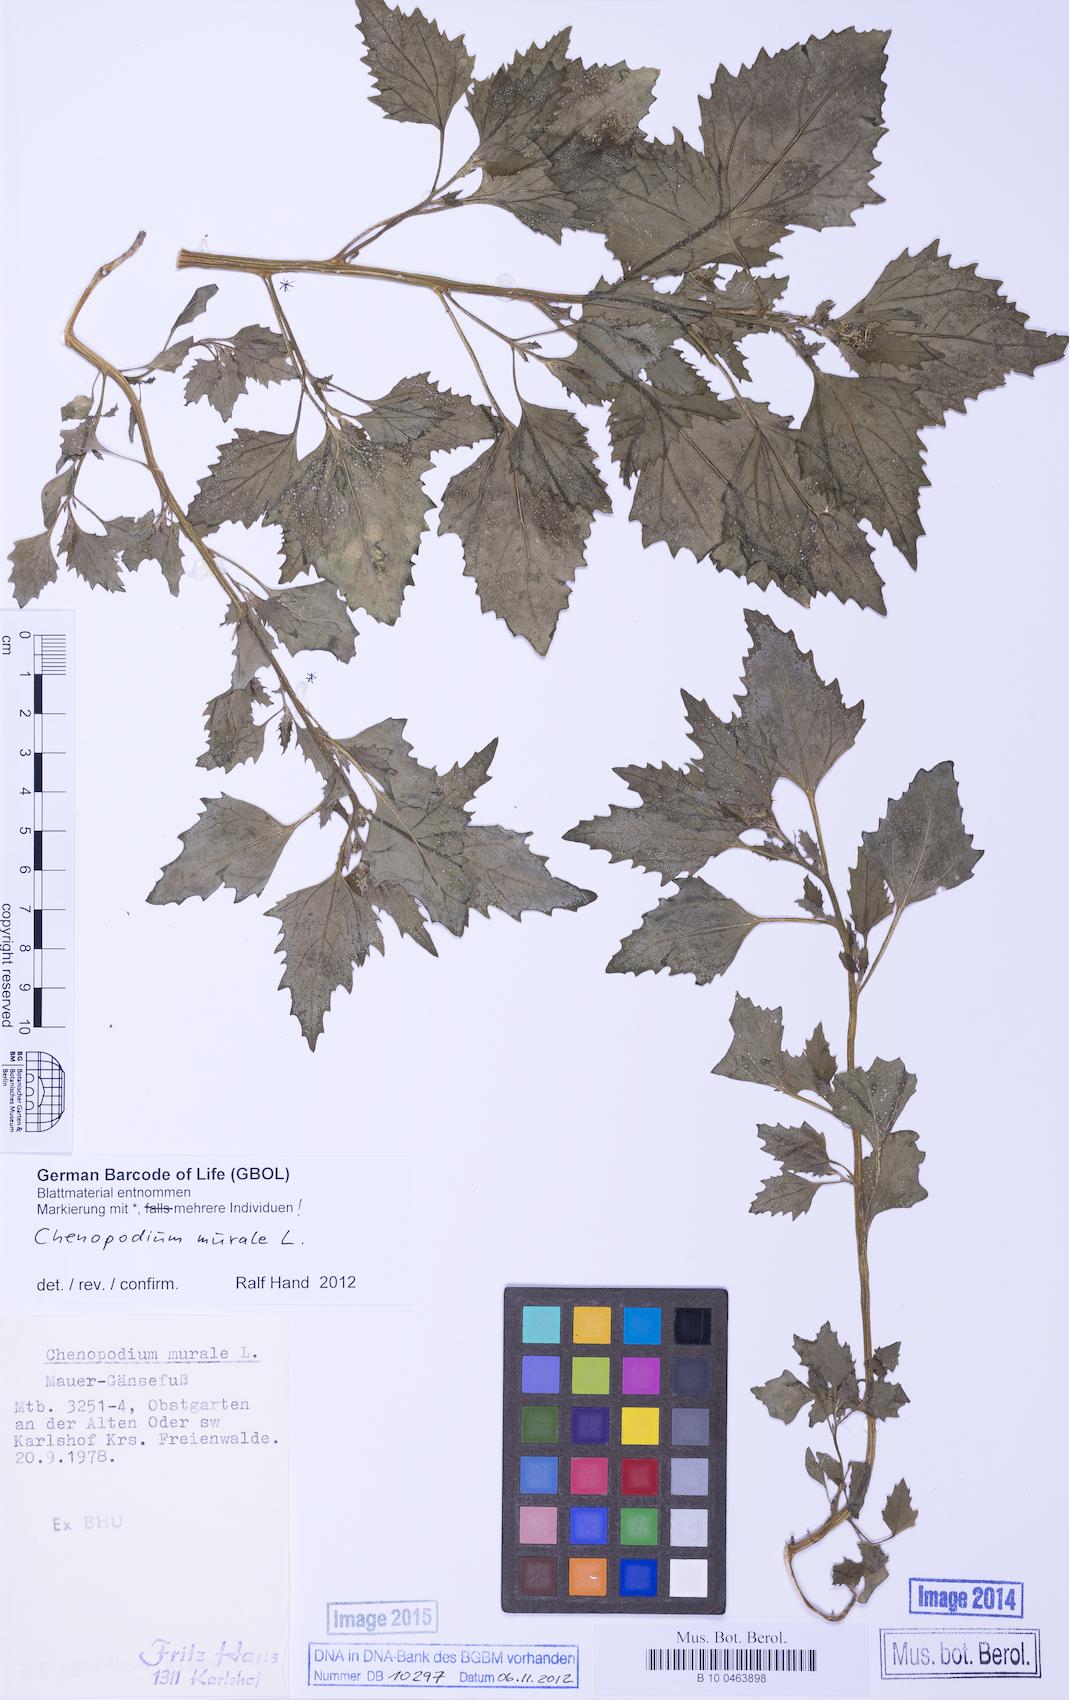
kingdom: Plantae
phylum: Tracheophyta
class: Magnoliopsida
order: Caryophyllales
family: Amaranthaceae
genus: Chenopodiastrum
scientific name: Chenopodiastrum murale
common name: Sowbane
